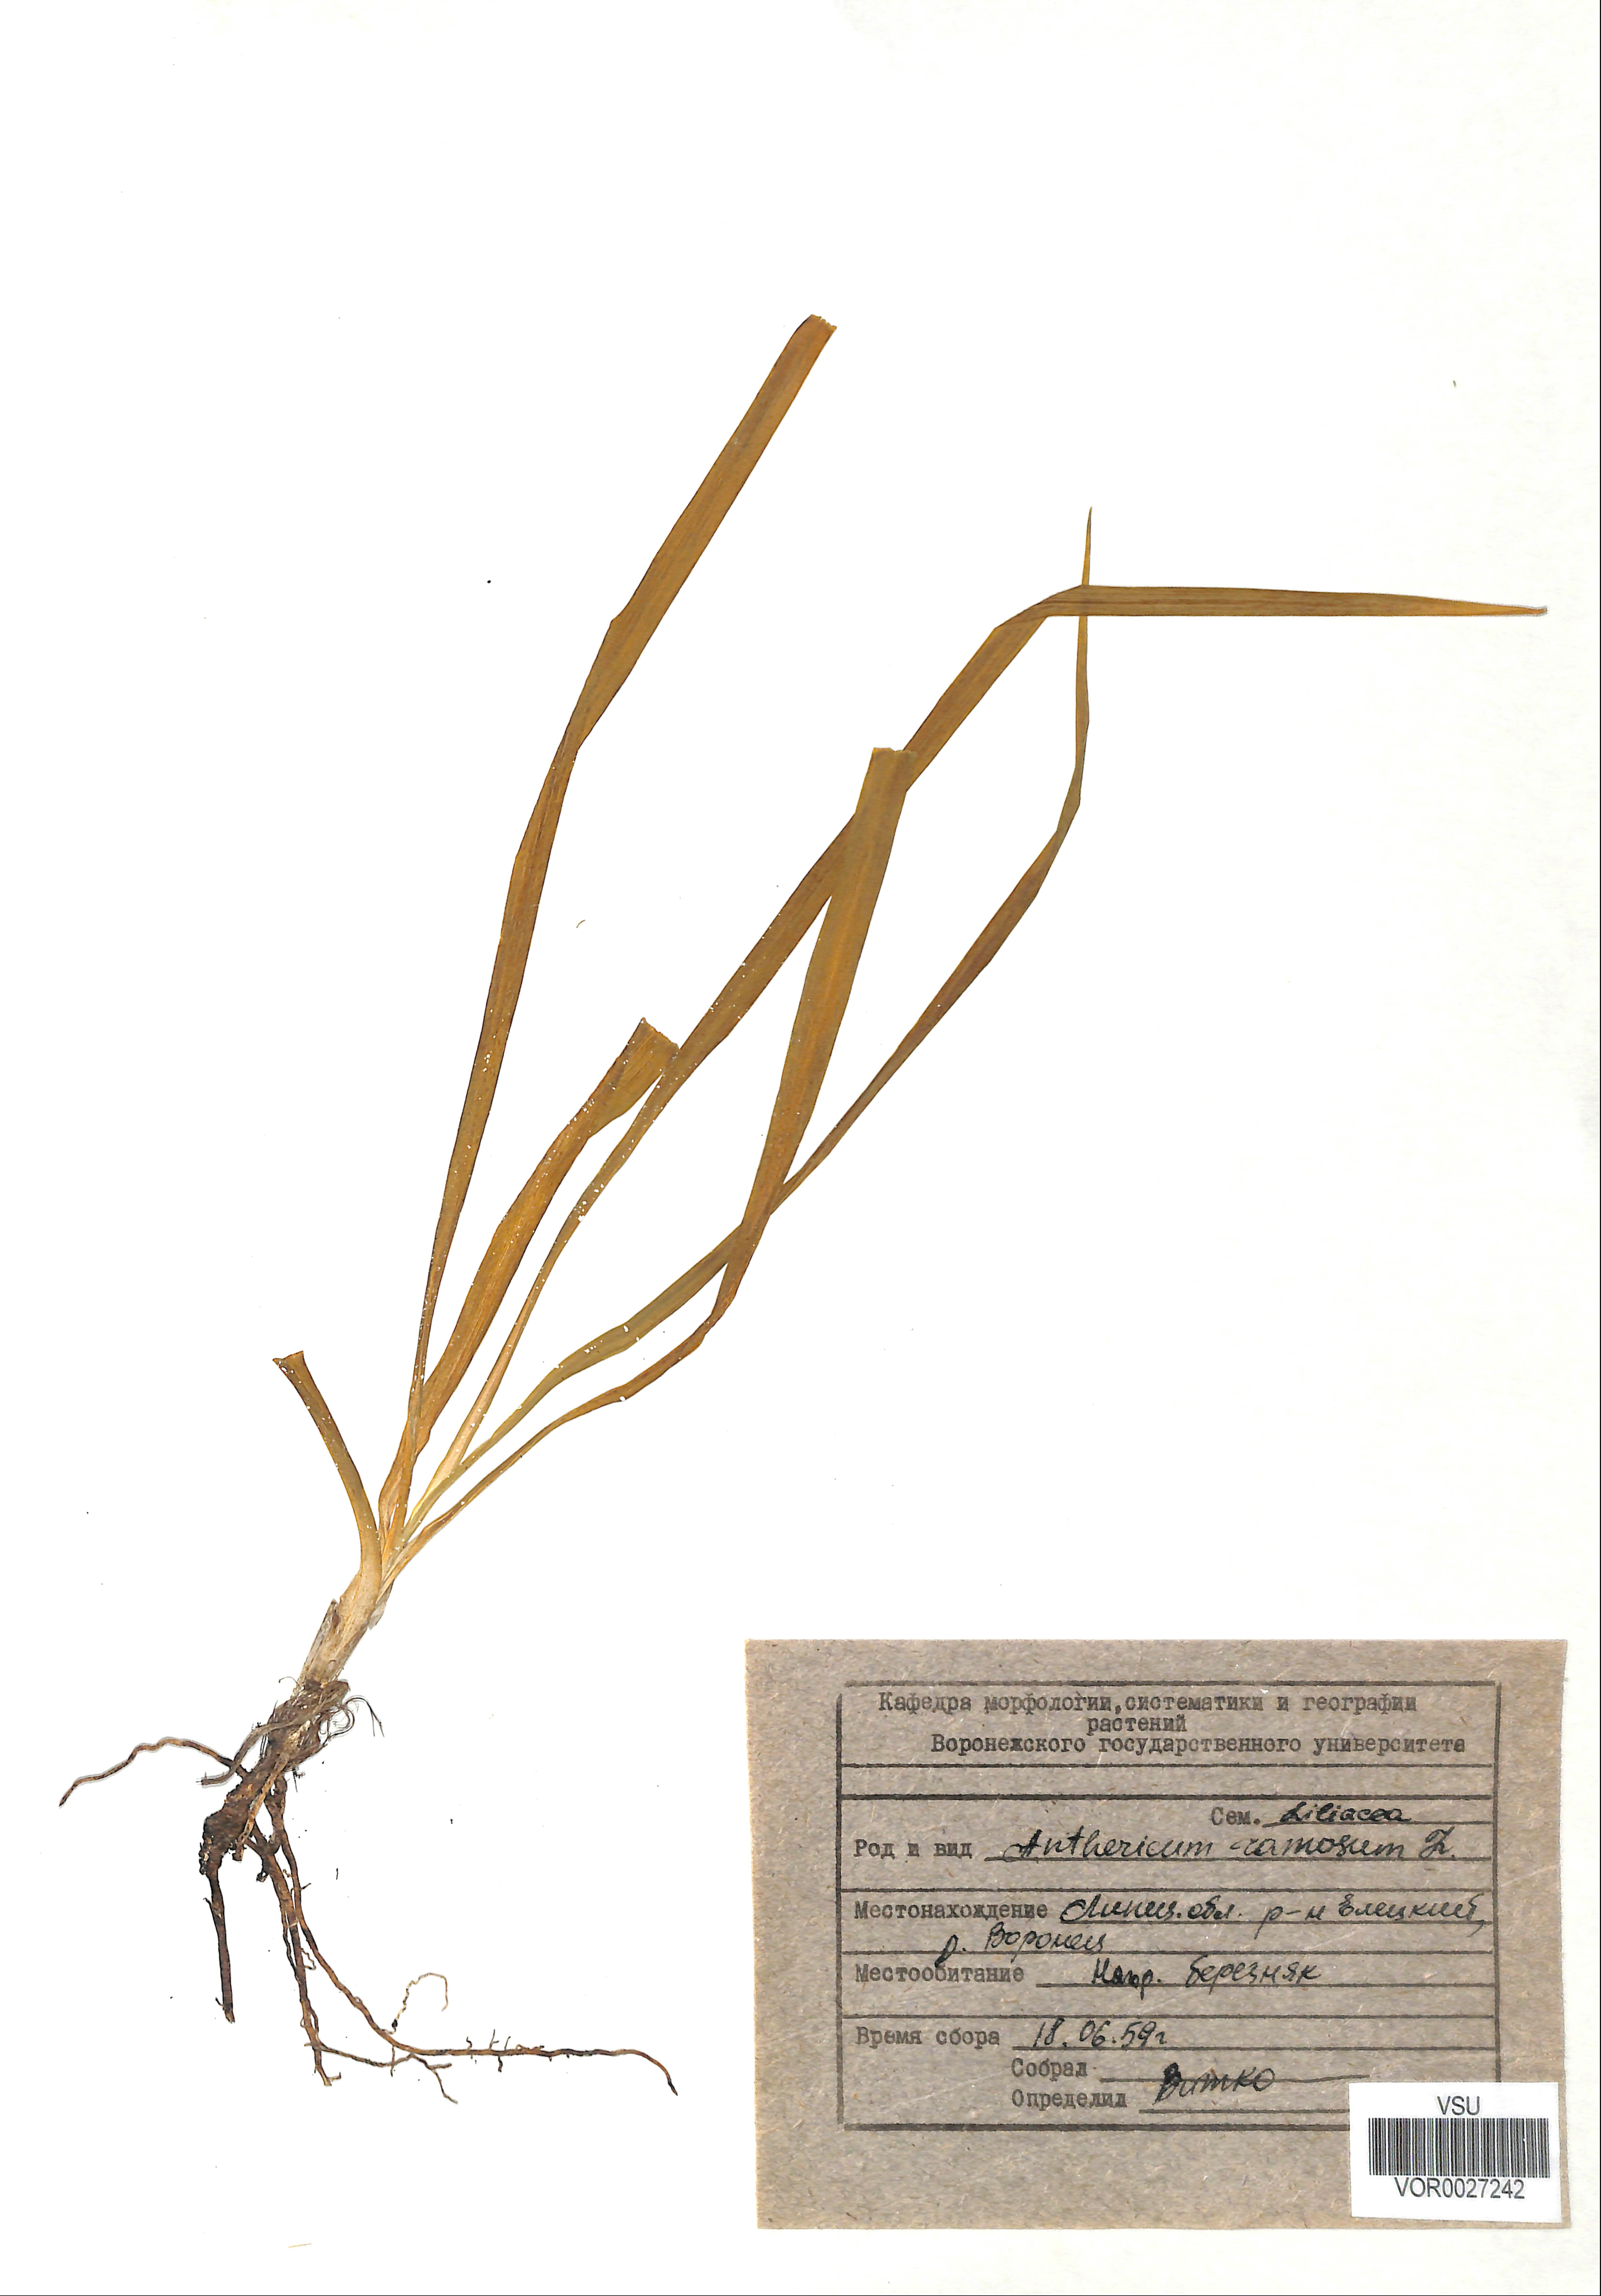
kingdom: Plantae
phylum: Tracheophyta
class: Liliopsida
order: Asparagales
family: Asparagaceae
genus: Anthericum
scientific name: Anthericum ramosum
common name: Branched st. bernard's-lily
